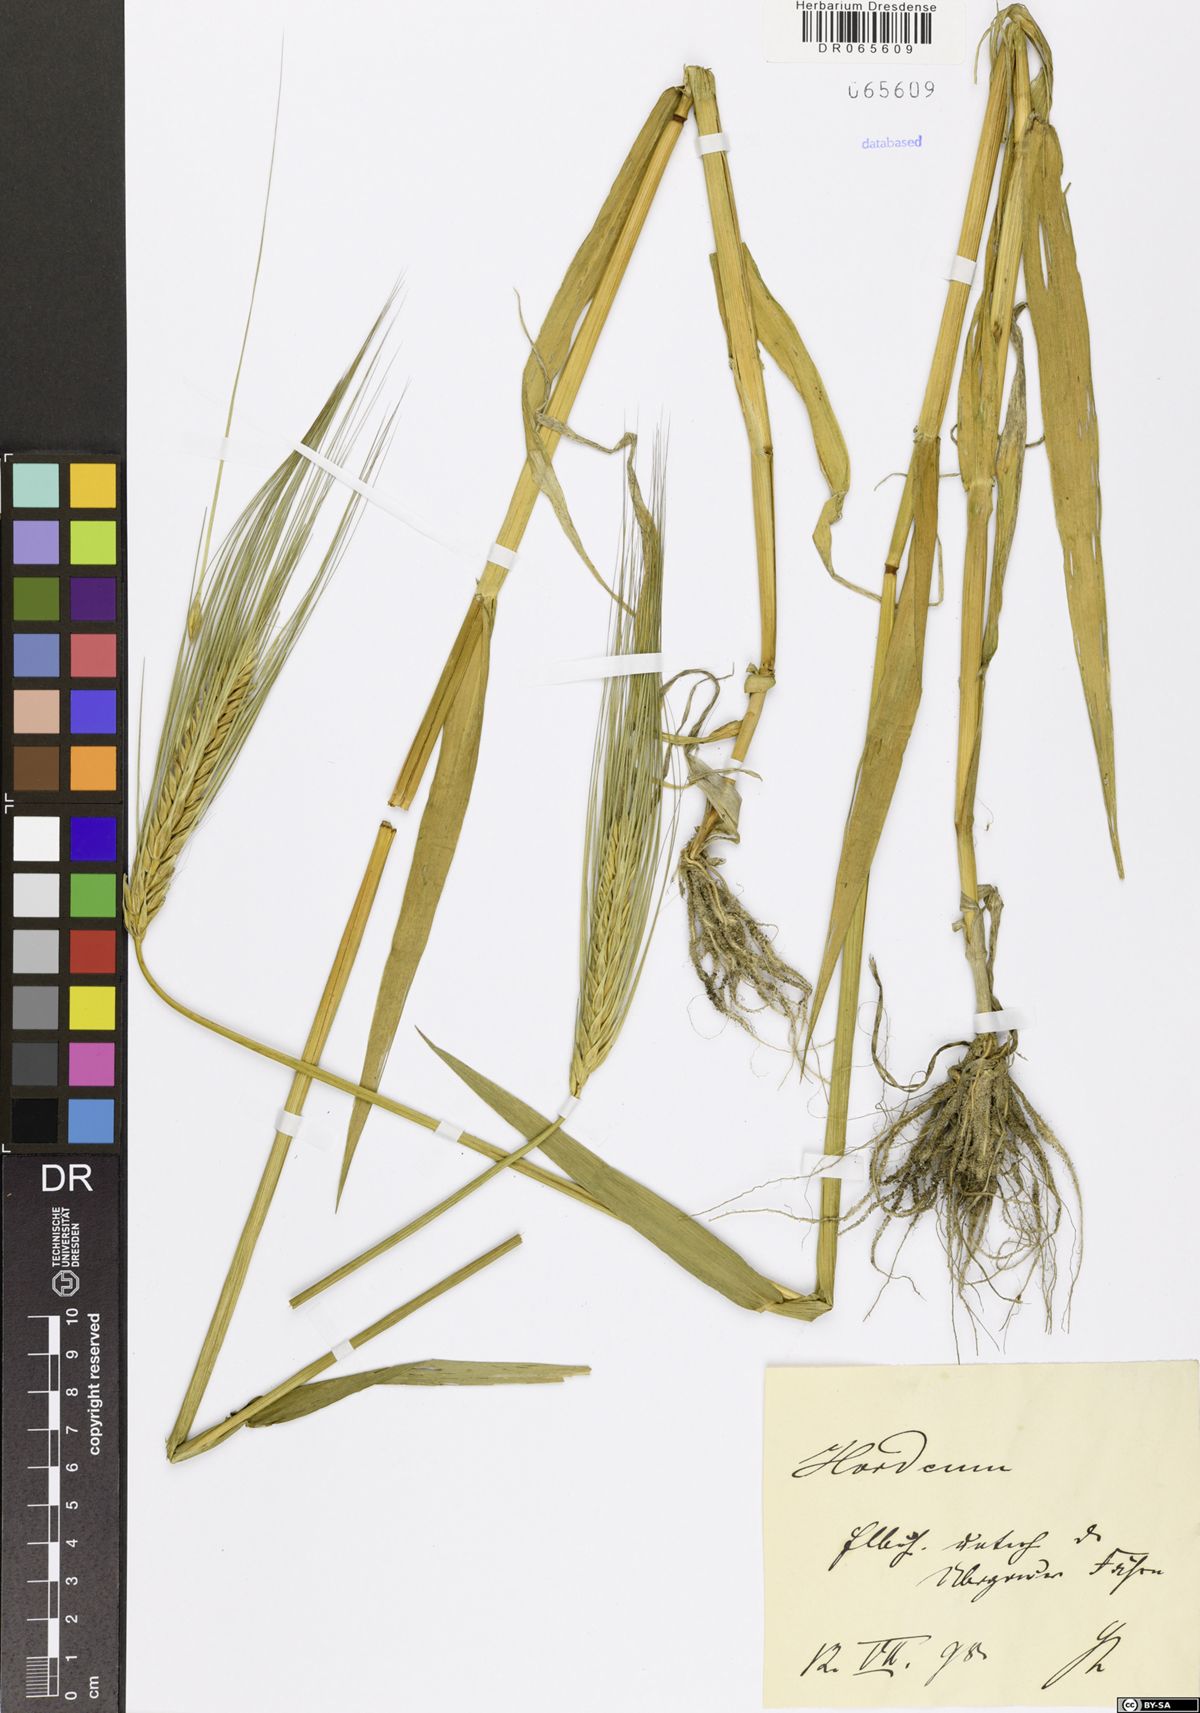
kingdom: Plantae
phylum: Tracheophyta
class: Liliopsida
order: Poales
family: Poaceae
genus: Hordeum
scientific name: Hordeum
